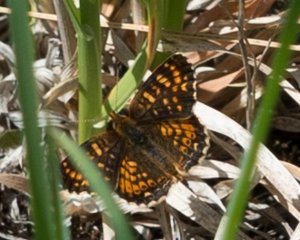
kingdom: Animalia
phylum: Arthropoda
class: Insecta
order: Lepidoptera
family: Nymphalidae
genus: Phyciodes
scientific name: Phyciodes tharos
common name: Field Crescent
